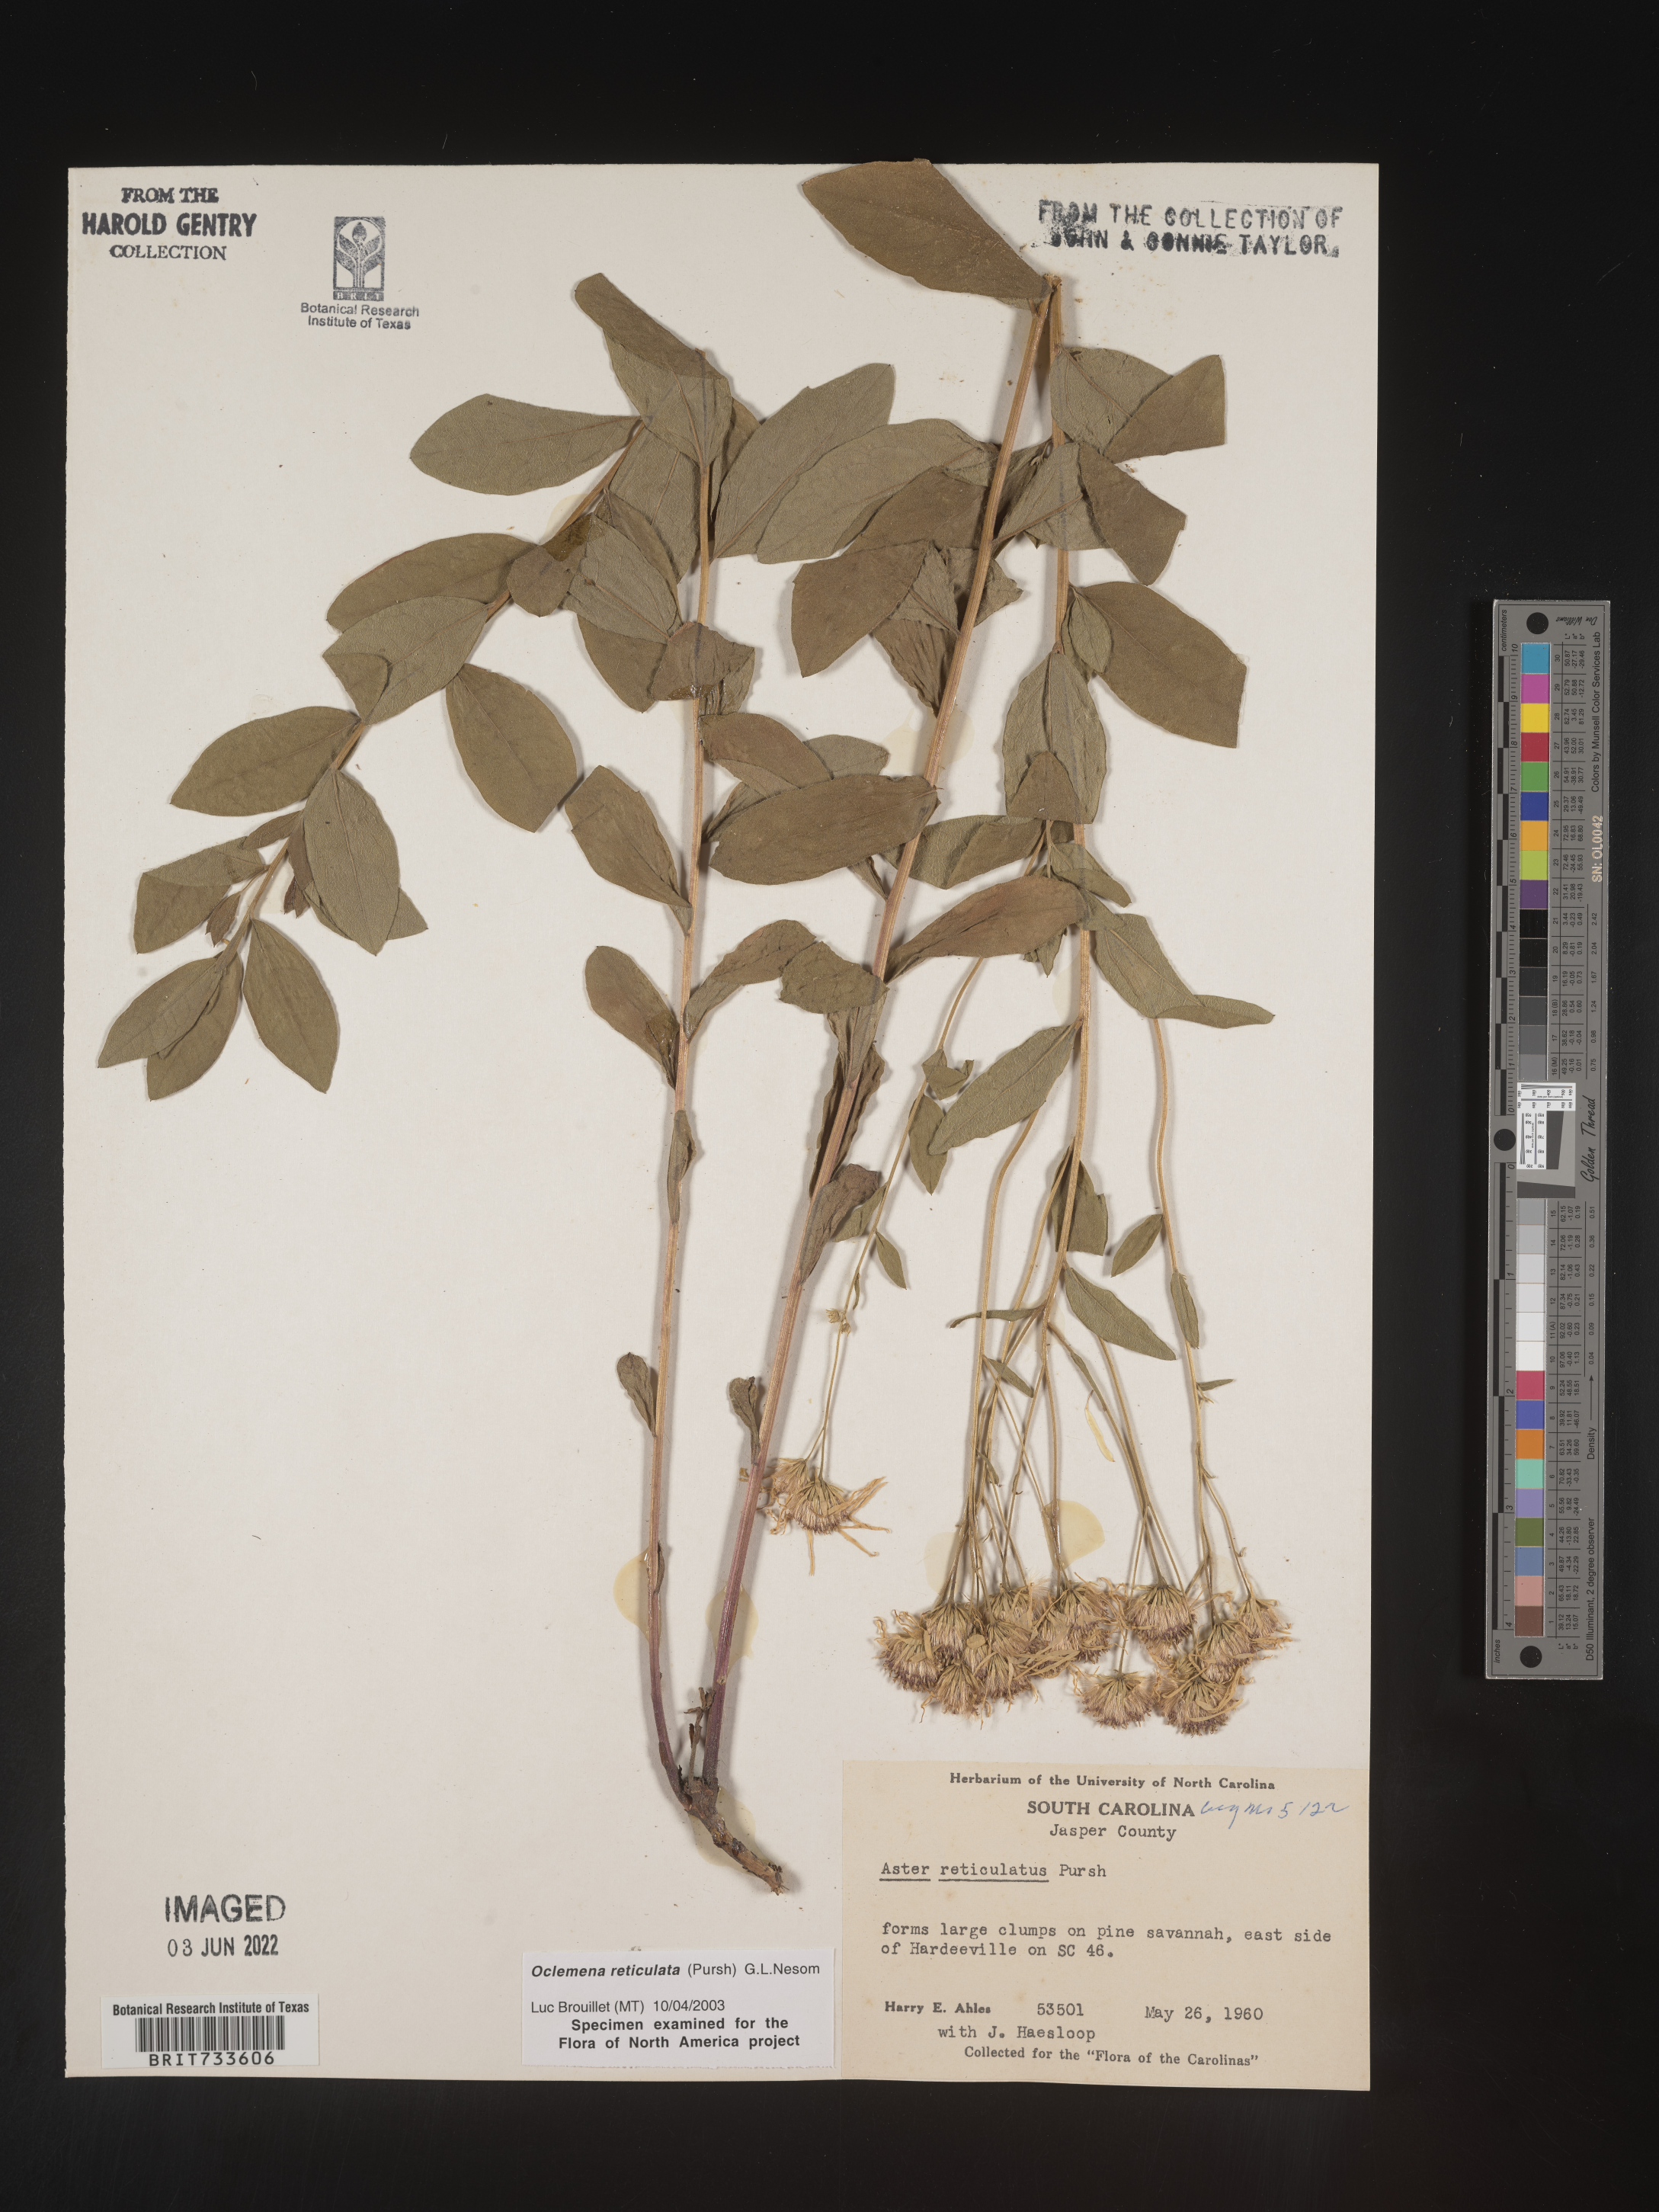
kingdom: Plantae
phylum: Tracheophyta
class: Magnoliopsida
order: Asterales
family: Asteraceae
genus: Oclemena
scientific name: Oclemena reticulata
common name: Pinebarren aster
